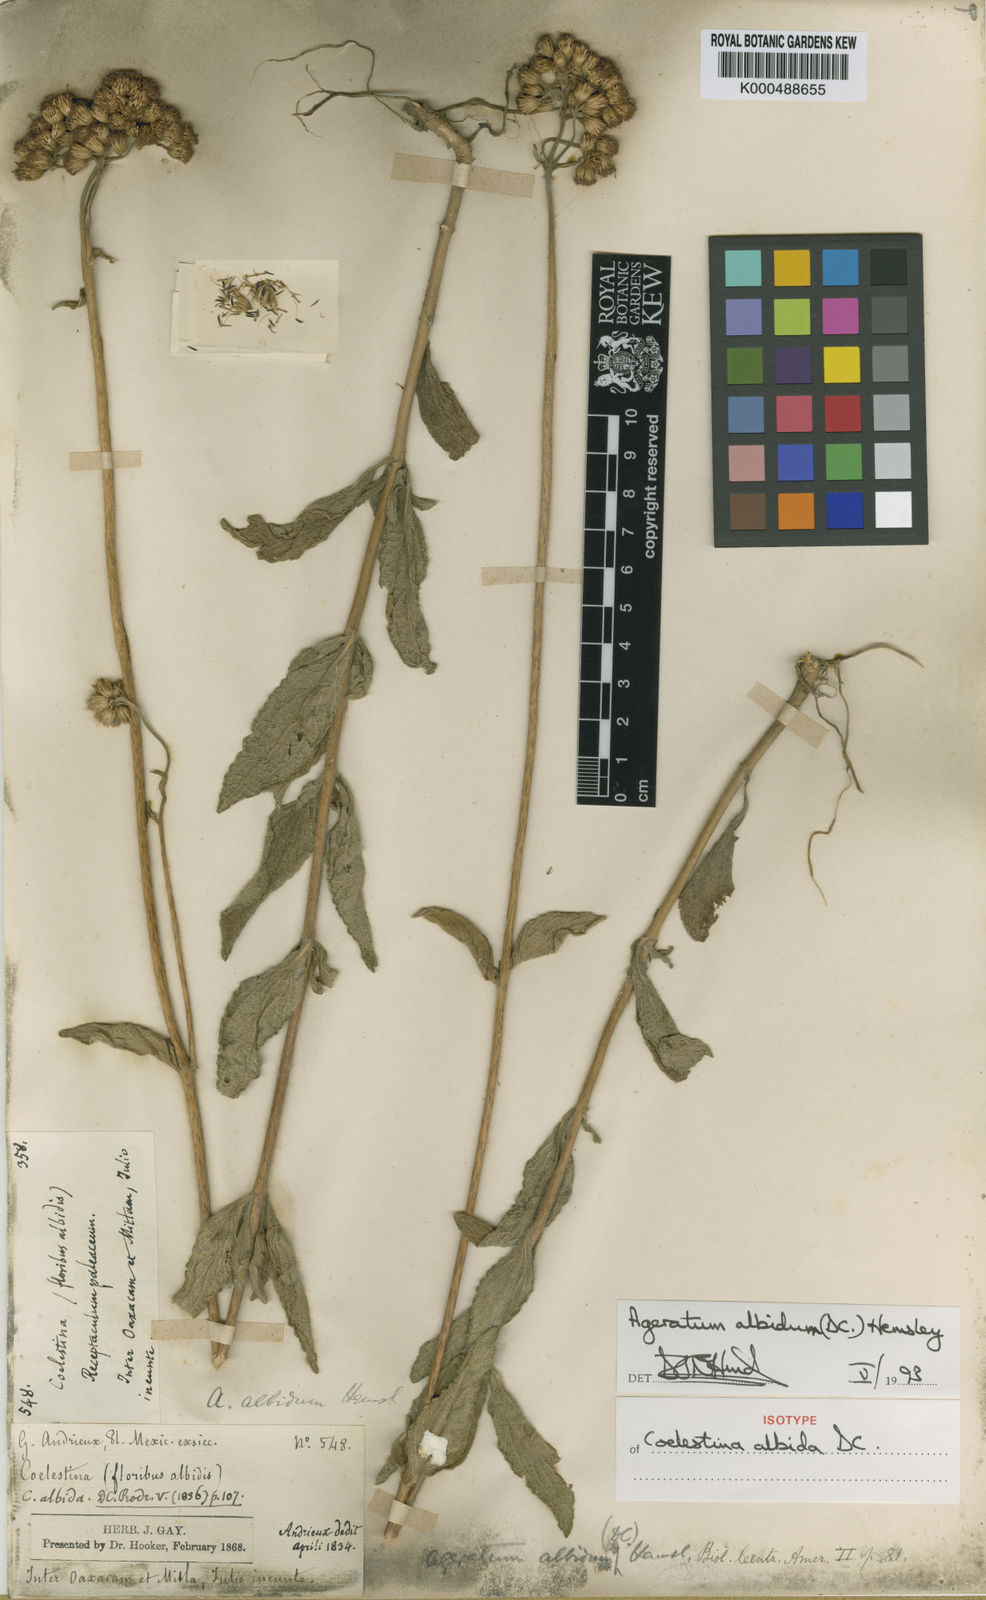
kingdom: Plantae
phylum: Tracheophyta
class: Magnoliopsida
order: Asterales
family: Asteraceae
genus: Ageratum
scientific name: Ageratum albidum
